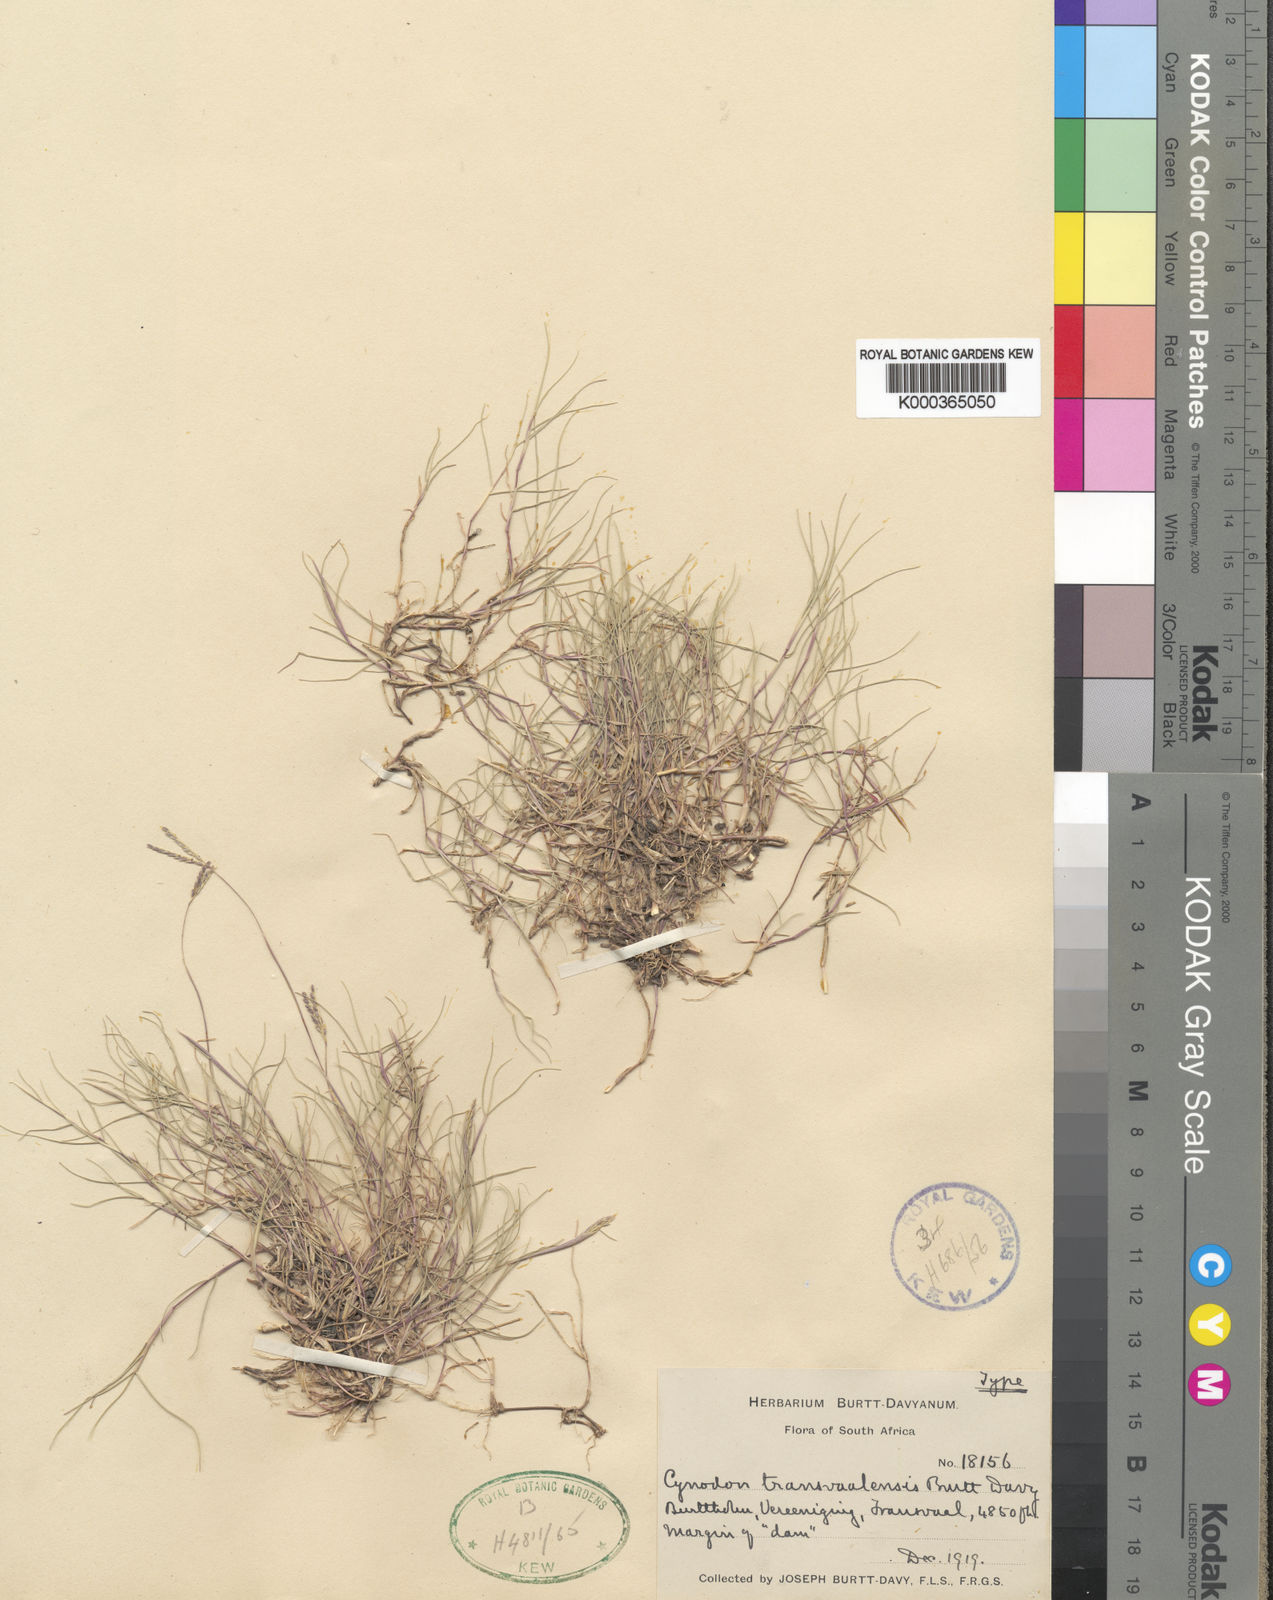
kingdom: Plantae
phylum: Tracheophyta
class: Liliopsida
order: Poales
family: Poaceae
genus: Cynodon
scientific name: Cynodon transvaalensis
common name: African bermuda grass
